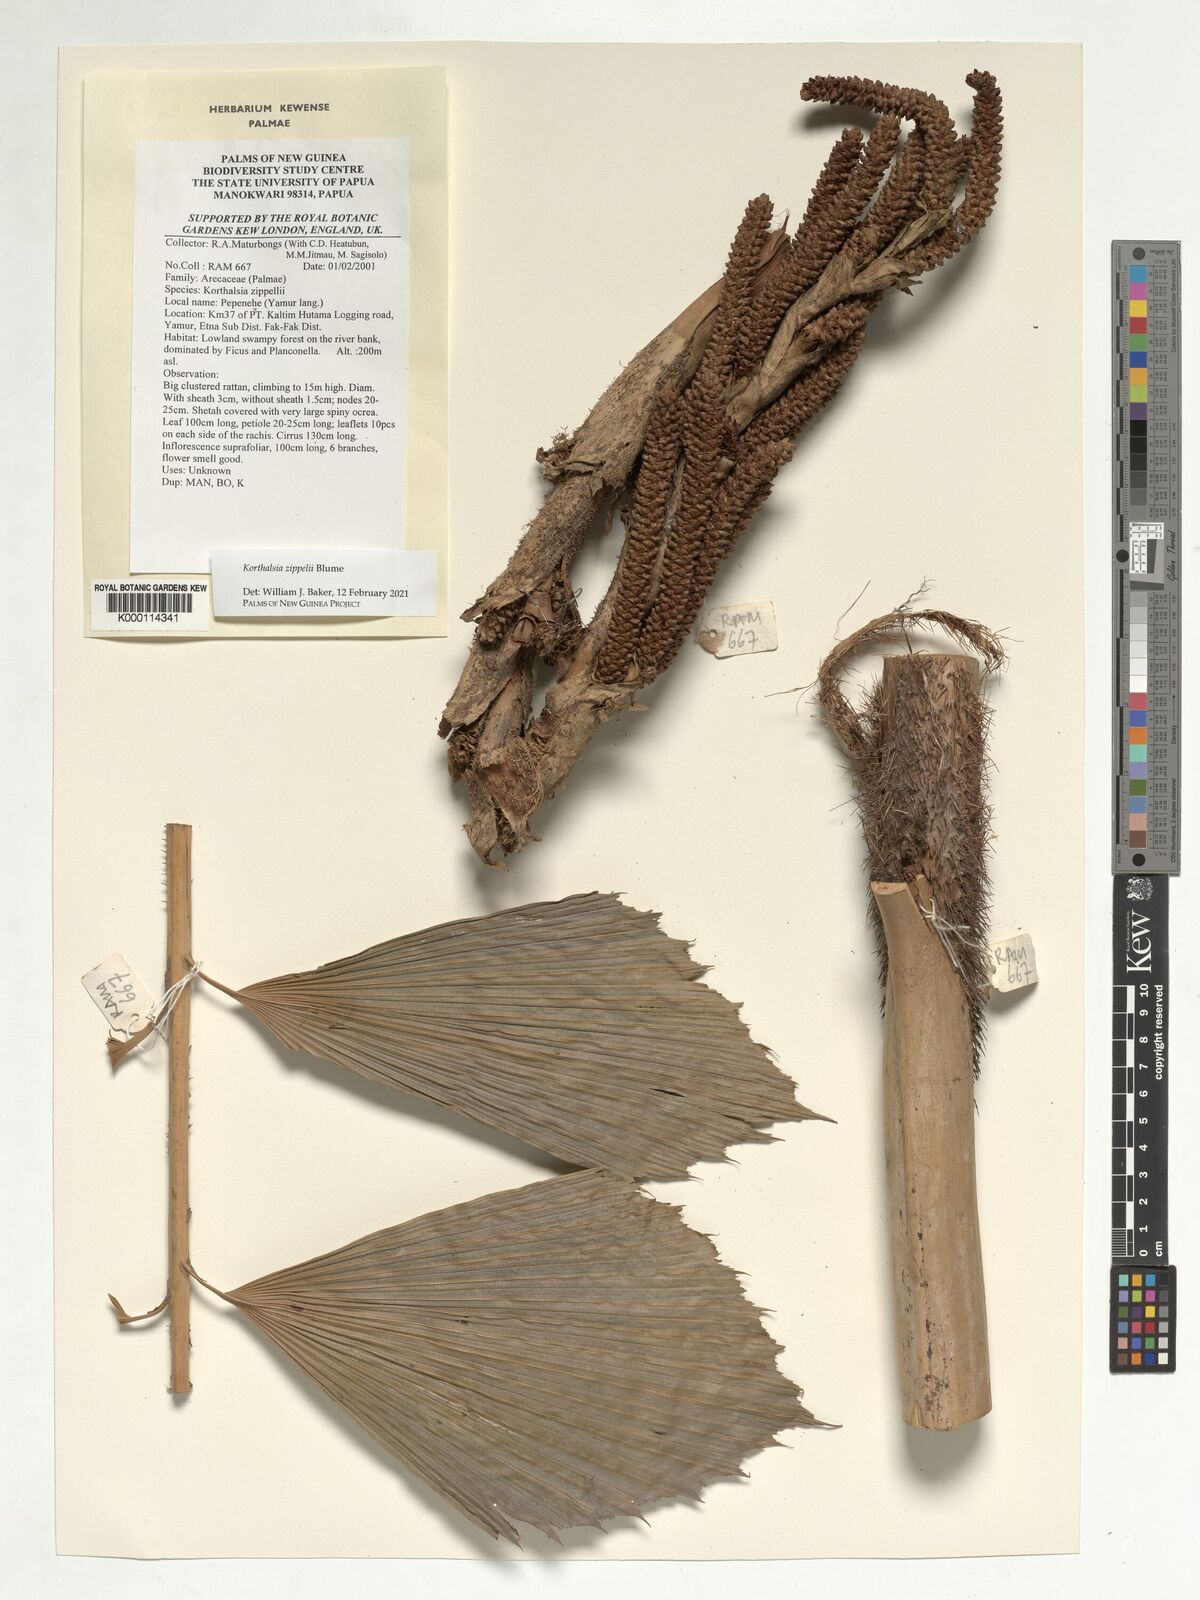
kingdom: Plantae
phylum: Tracheophyta
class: Liliopsida
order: Arecales
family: Arecaceae
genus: Korthalsia
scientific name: Korthalsia zippelii
